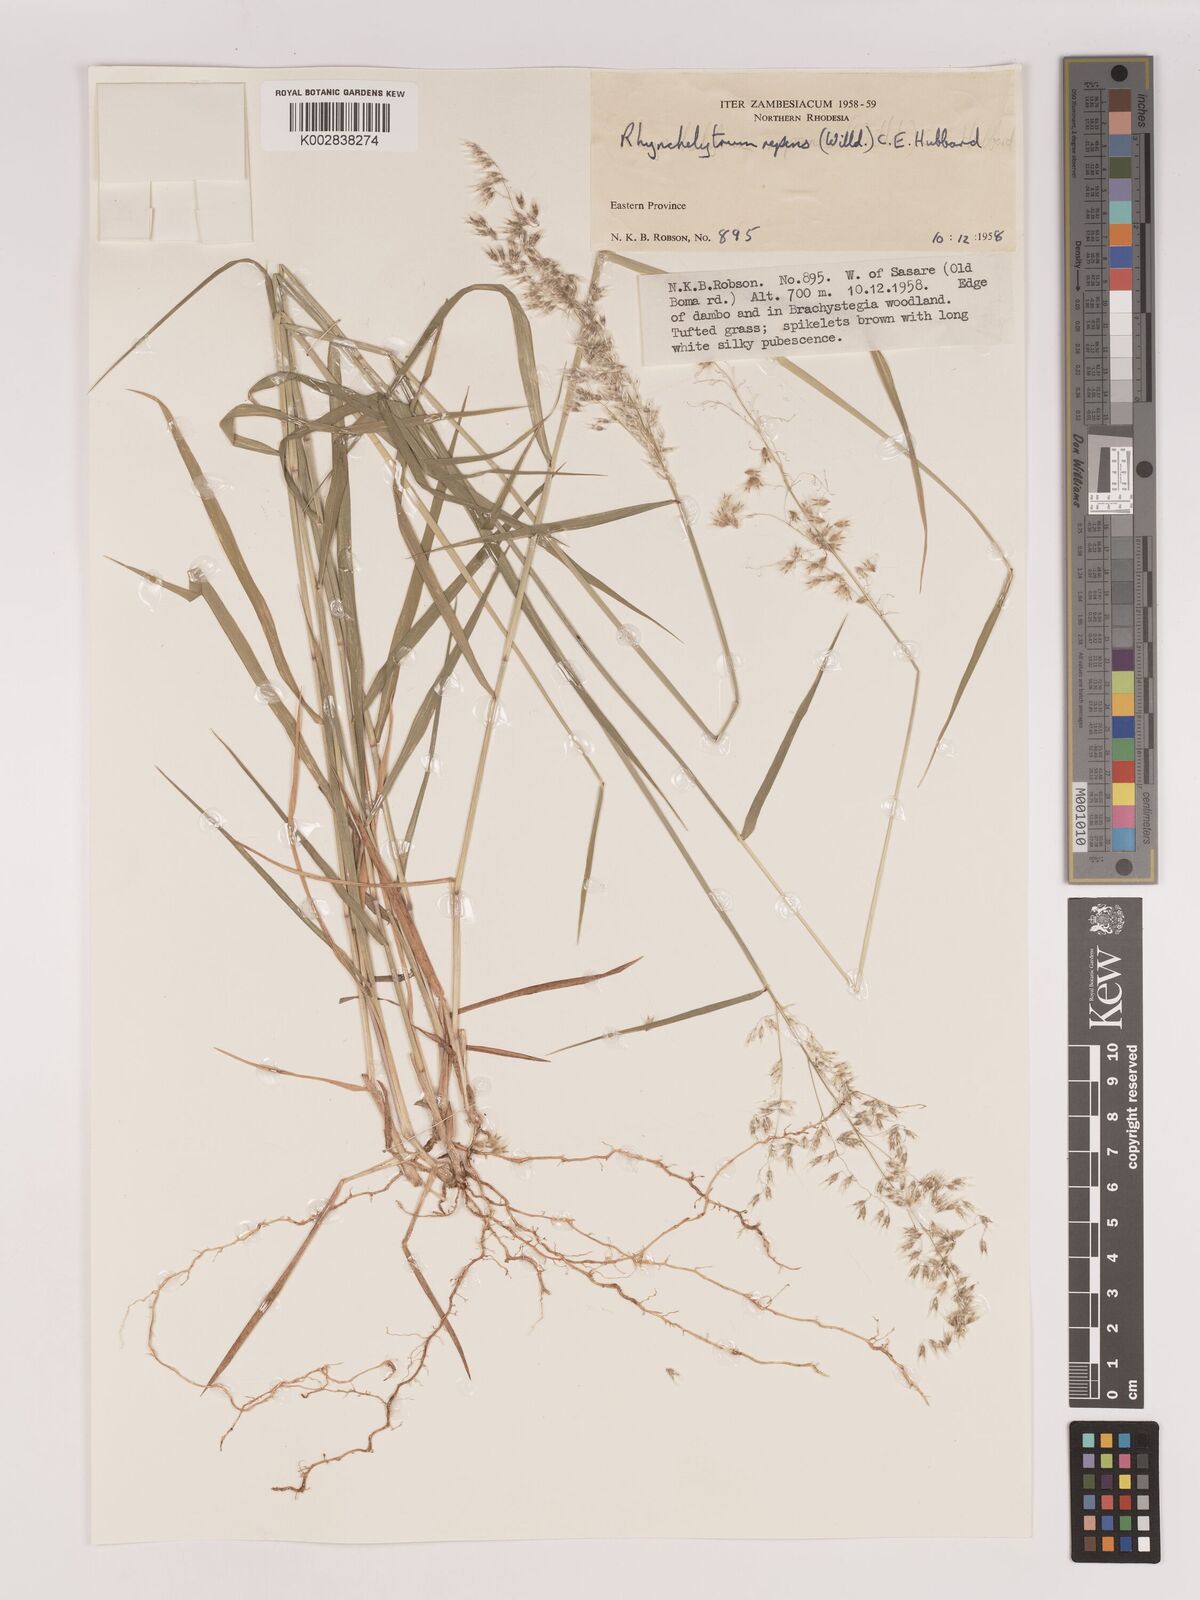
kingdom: Plantae
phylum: Tracheophyta
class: Liliopsida
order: Poales
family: Poaceae
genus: Melinis
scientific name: Melinis repens
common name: Rose natal grass
